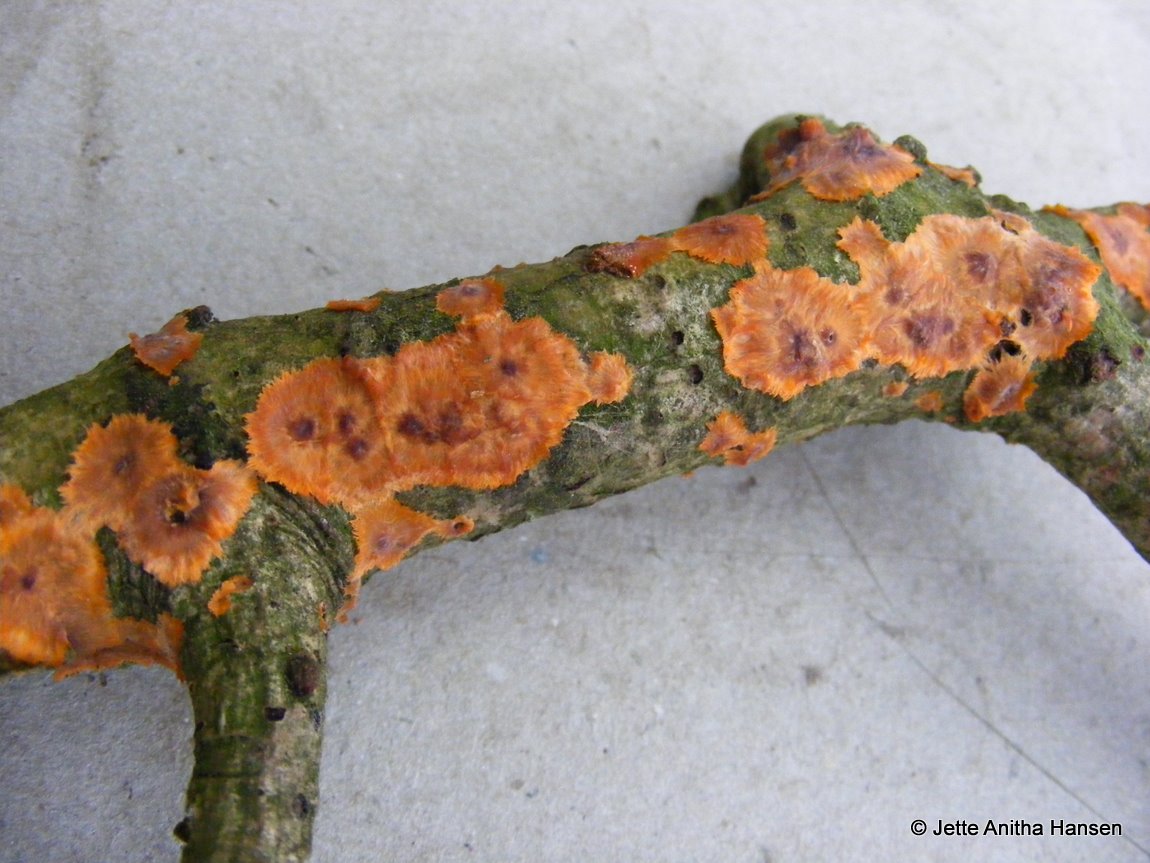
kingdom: Fungi
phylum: Basidiomycota
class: Agaricomycetes
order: Polyporales
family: Meruliaceae
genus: Phlebia
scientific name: Phlebia radiata
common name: stråle-åresvamp
